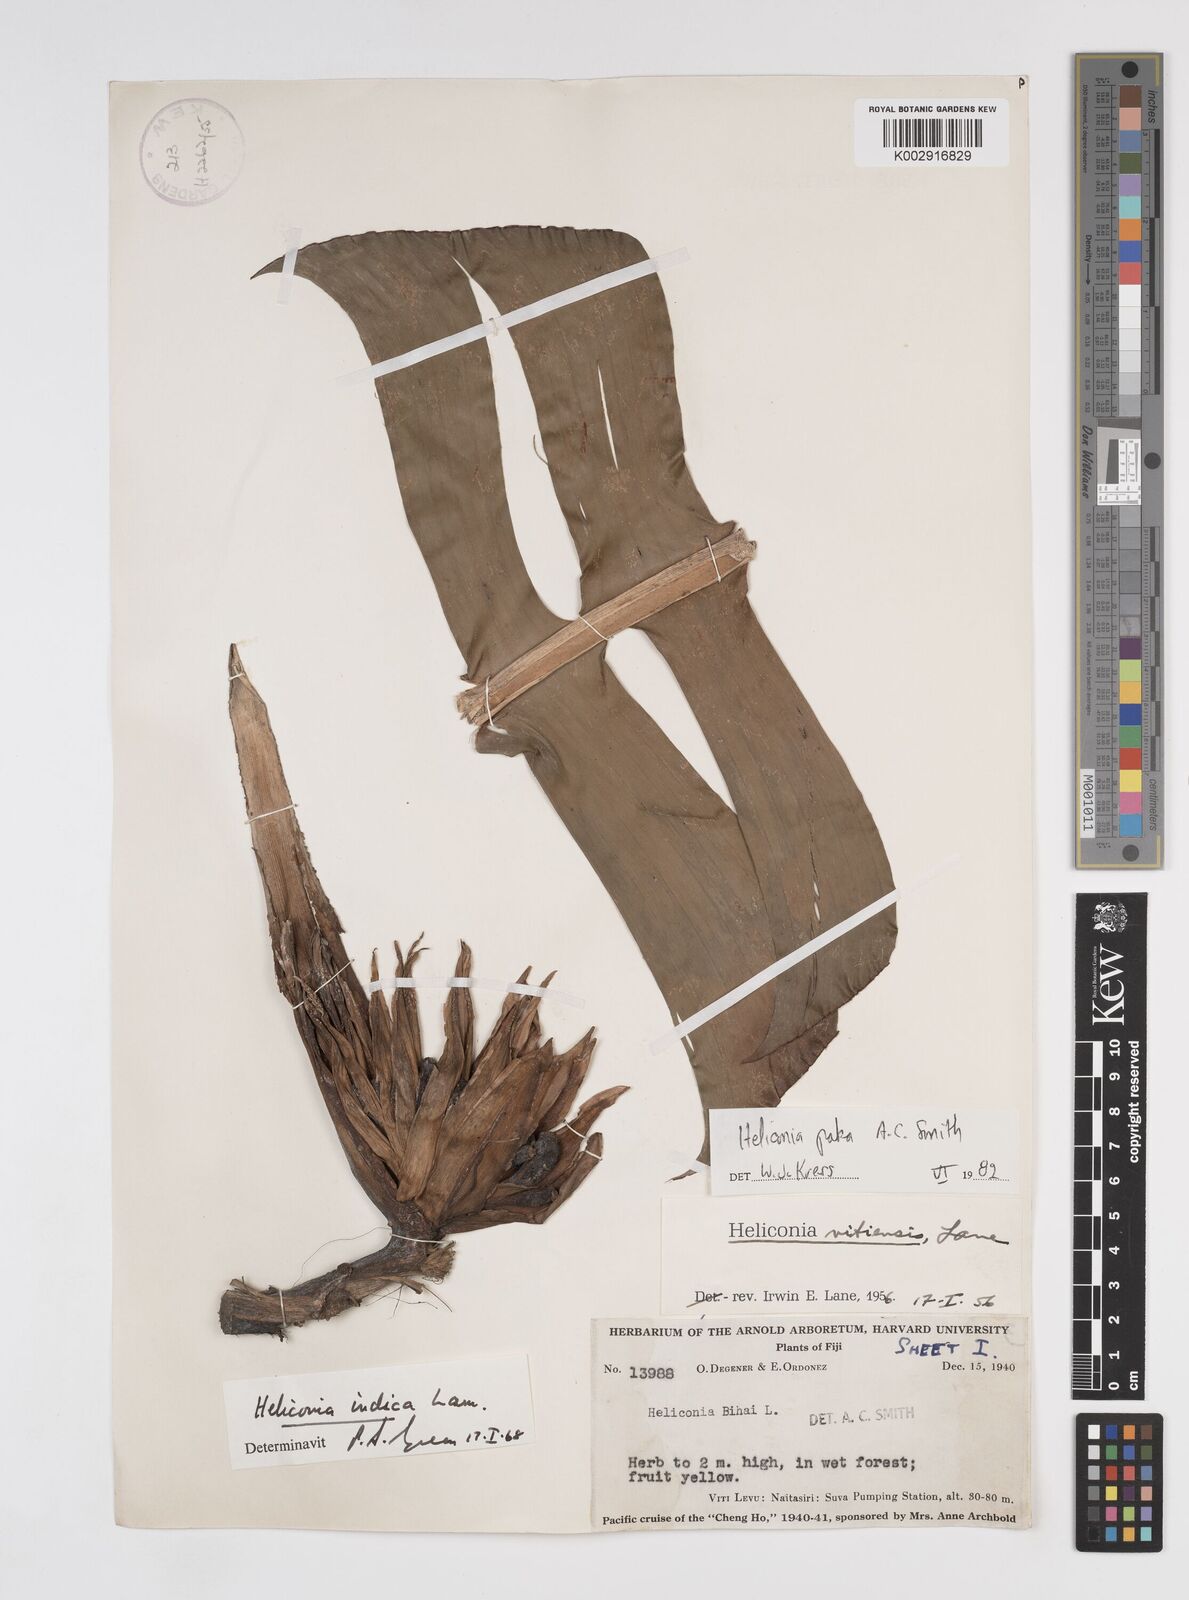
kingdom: Plantae
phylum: Tracheophyta
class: Liliopsida
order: Zingiberales
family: Heliconiaceae
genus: Heliconia
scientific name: Heliconia paka
